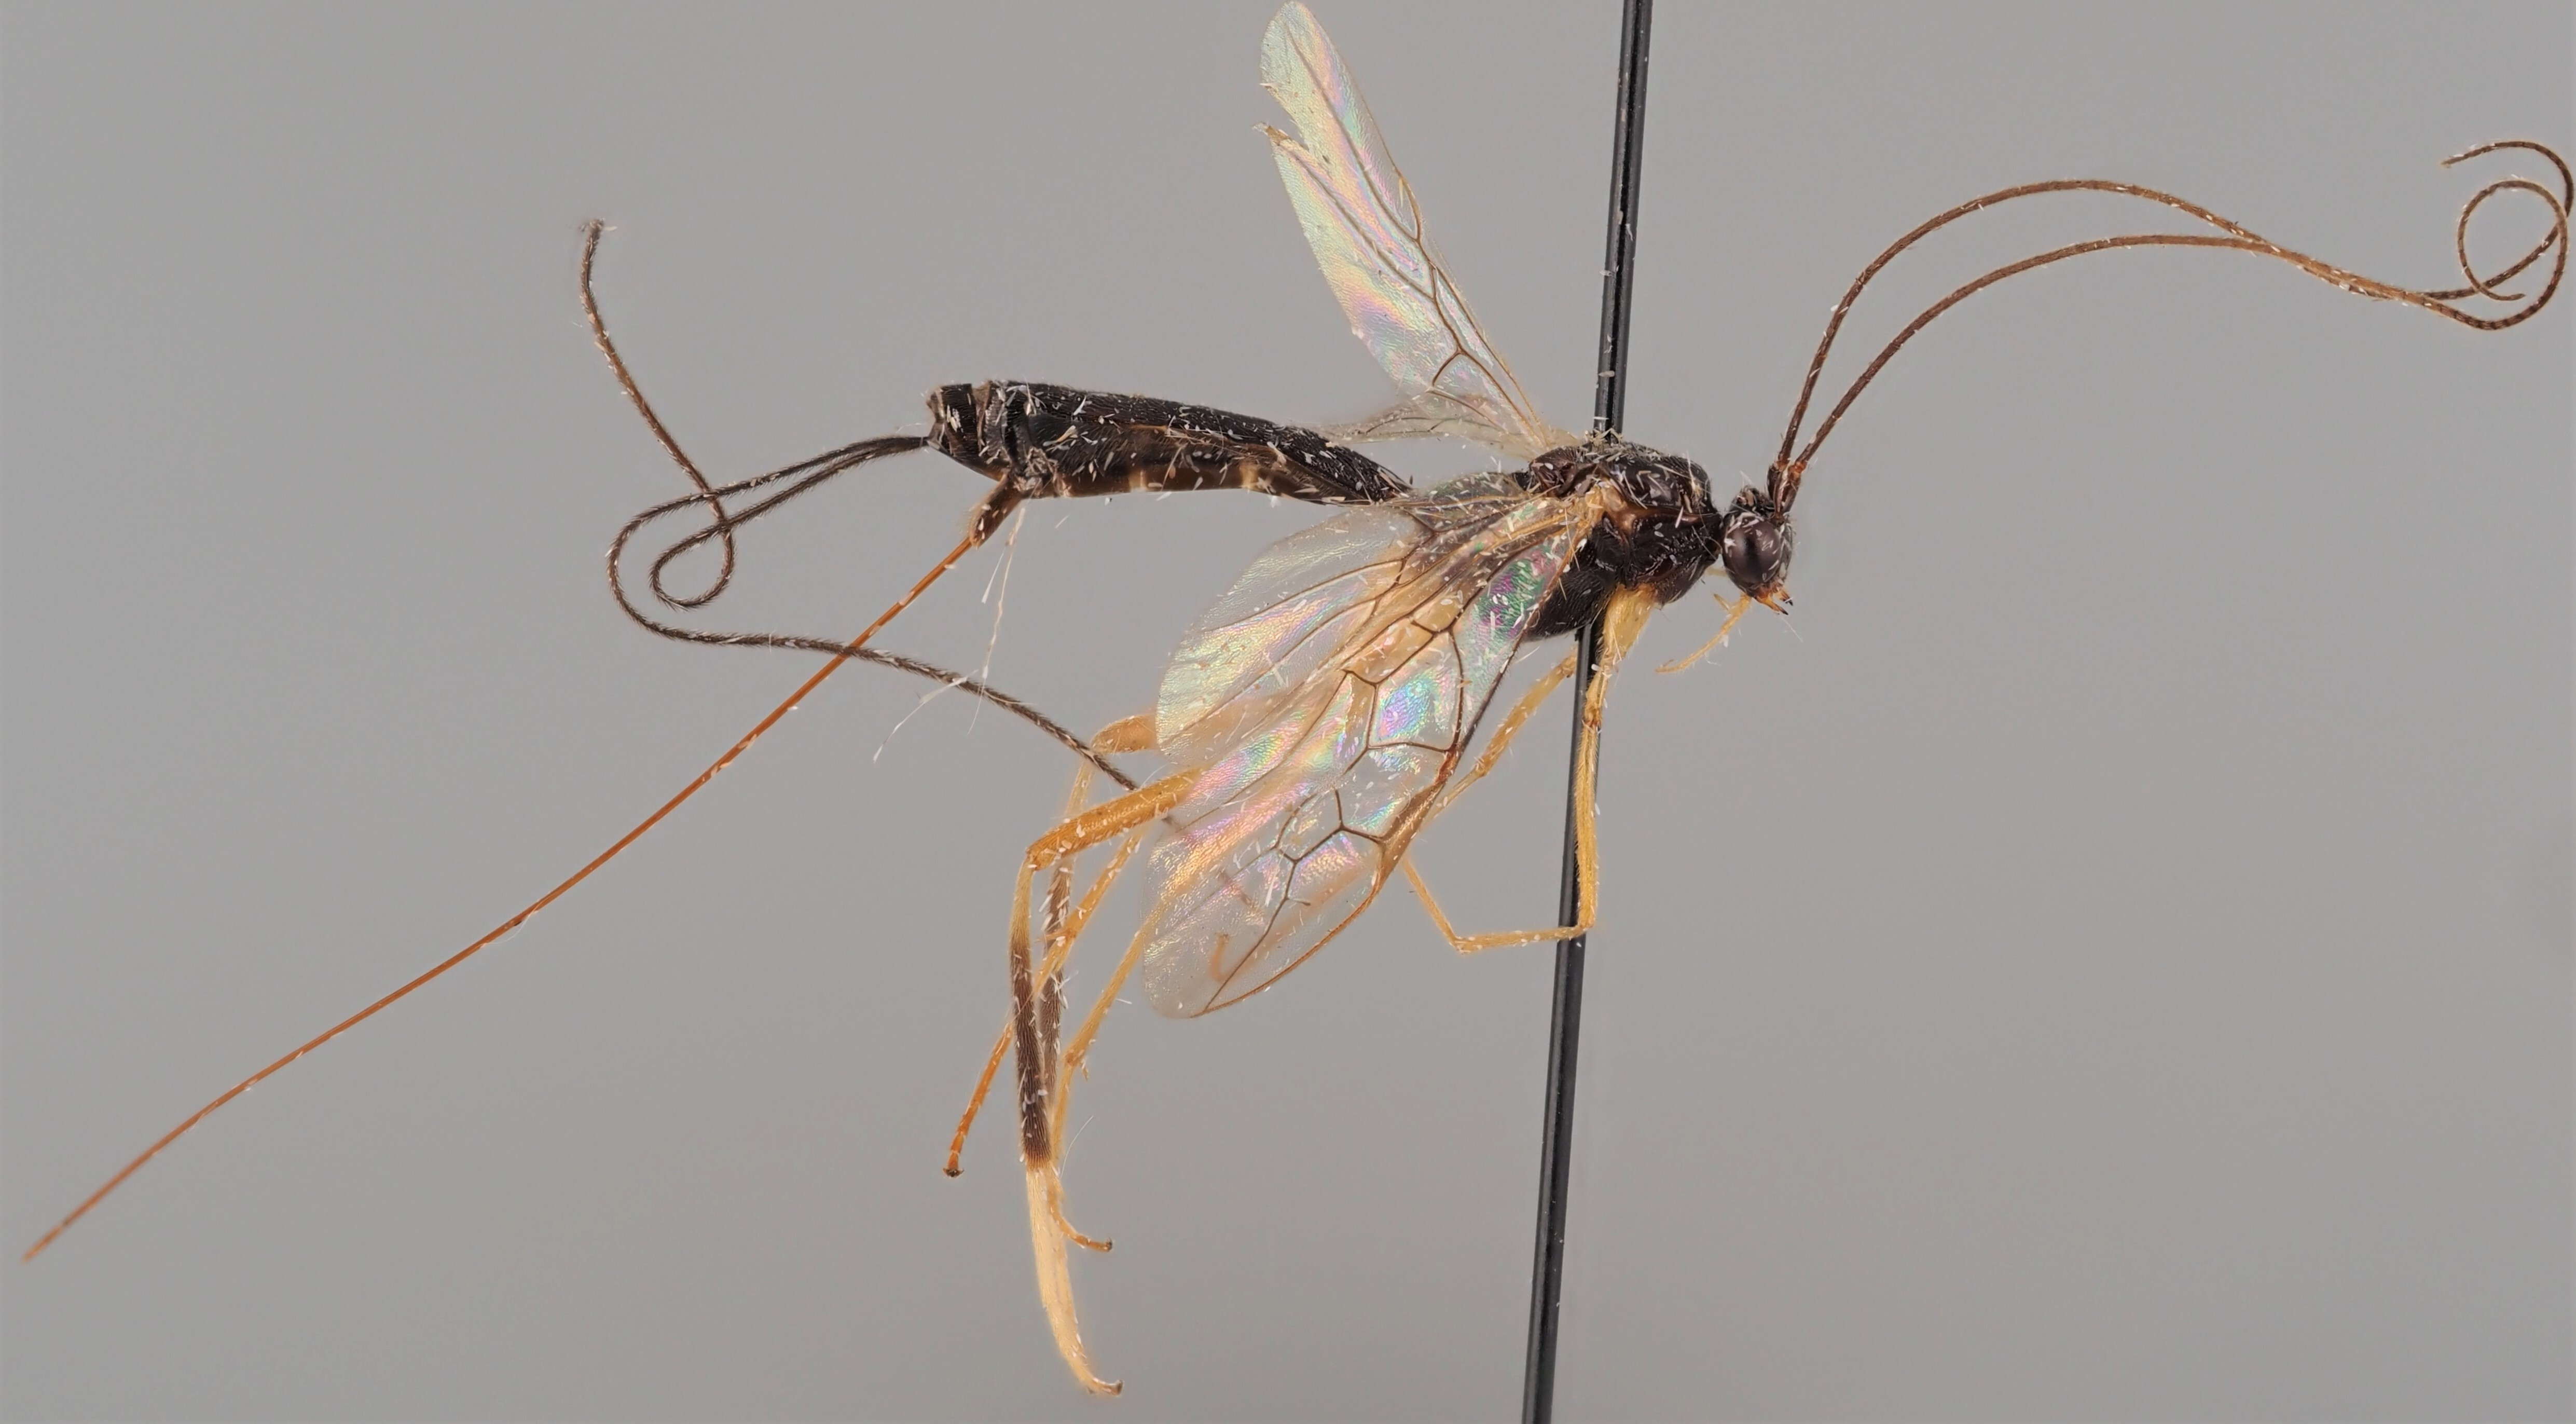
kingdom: Animalia
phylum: Arthropoda
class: Insecta
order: Hymenoptera
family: Braconidae
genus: Macrocentrus
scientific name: Macrocentrus gibber
